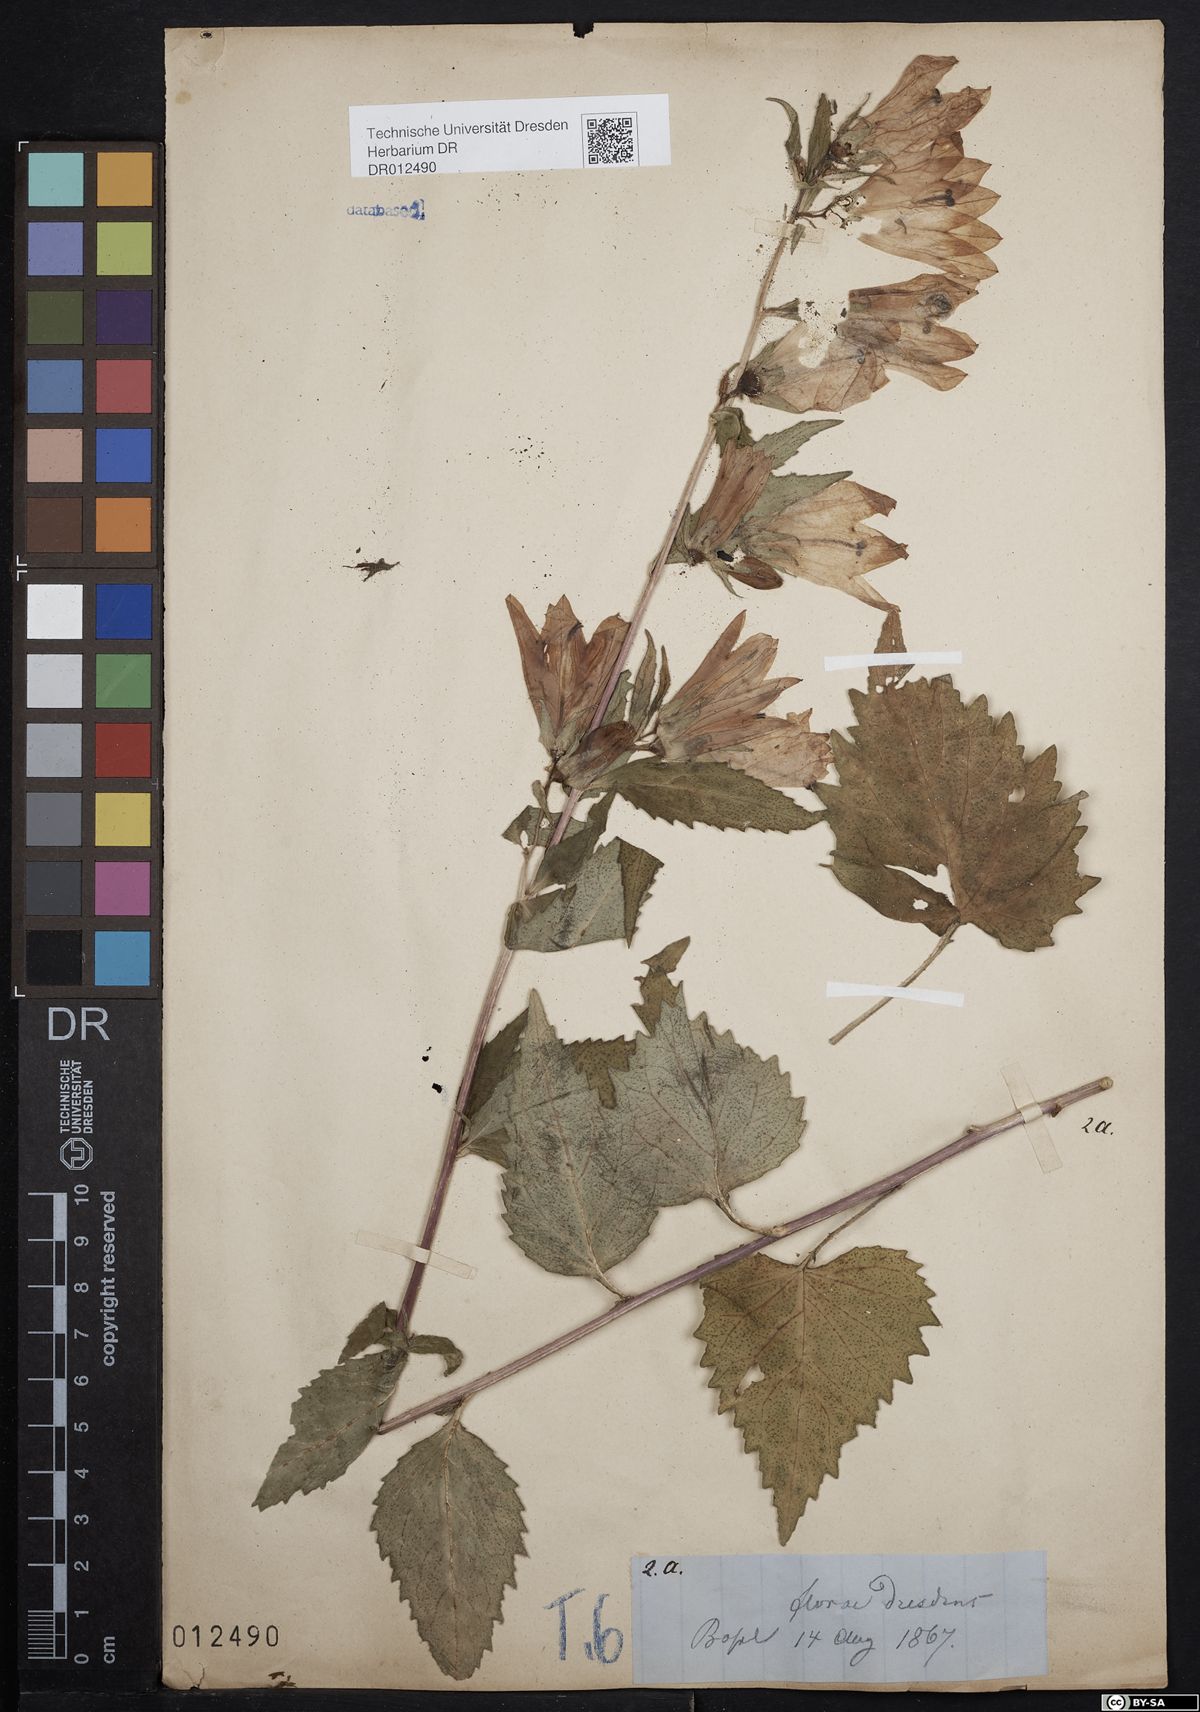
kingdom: Plantae
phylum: Tracheophyta
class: Magnoliopsida
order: Asterales
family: Campanulaceae
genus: Campanula
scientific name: Campanula trachelium
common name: Nettle-leaved bellflower
